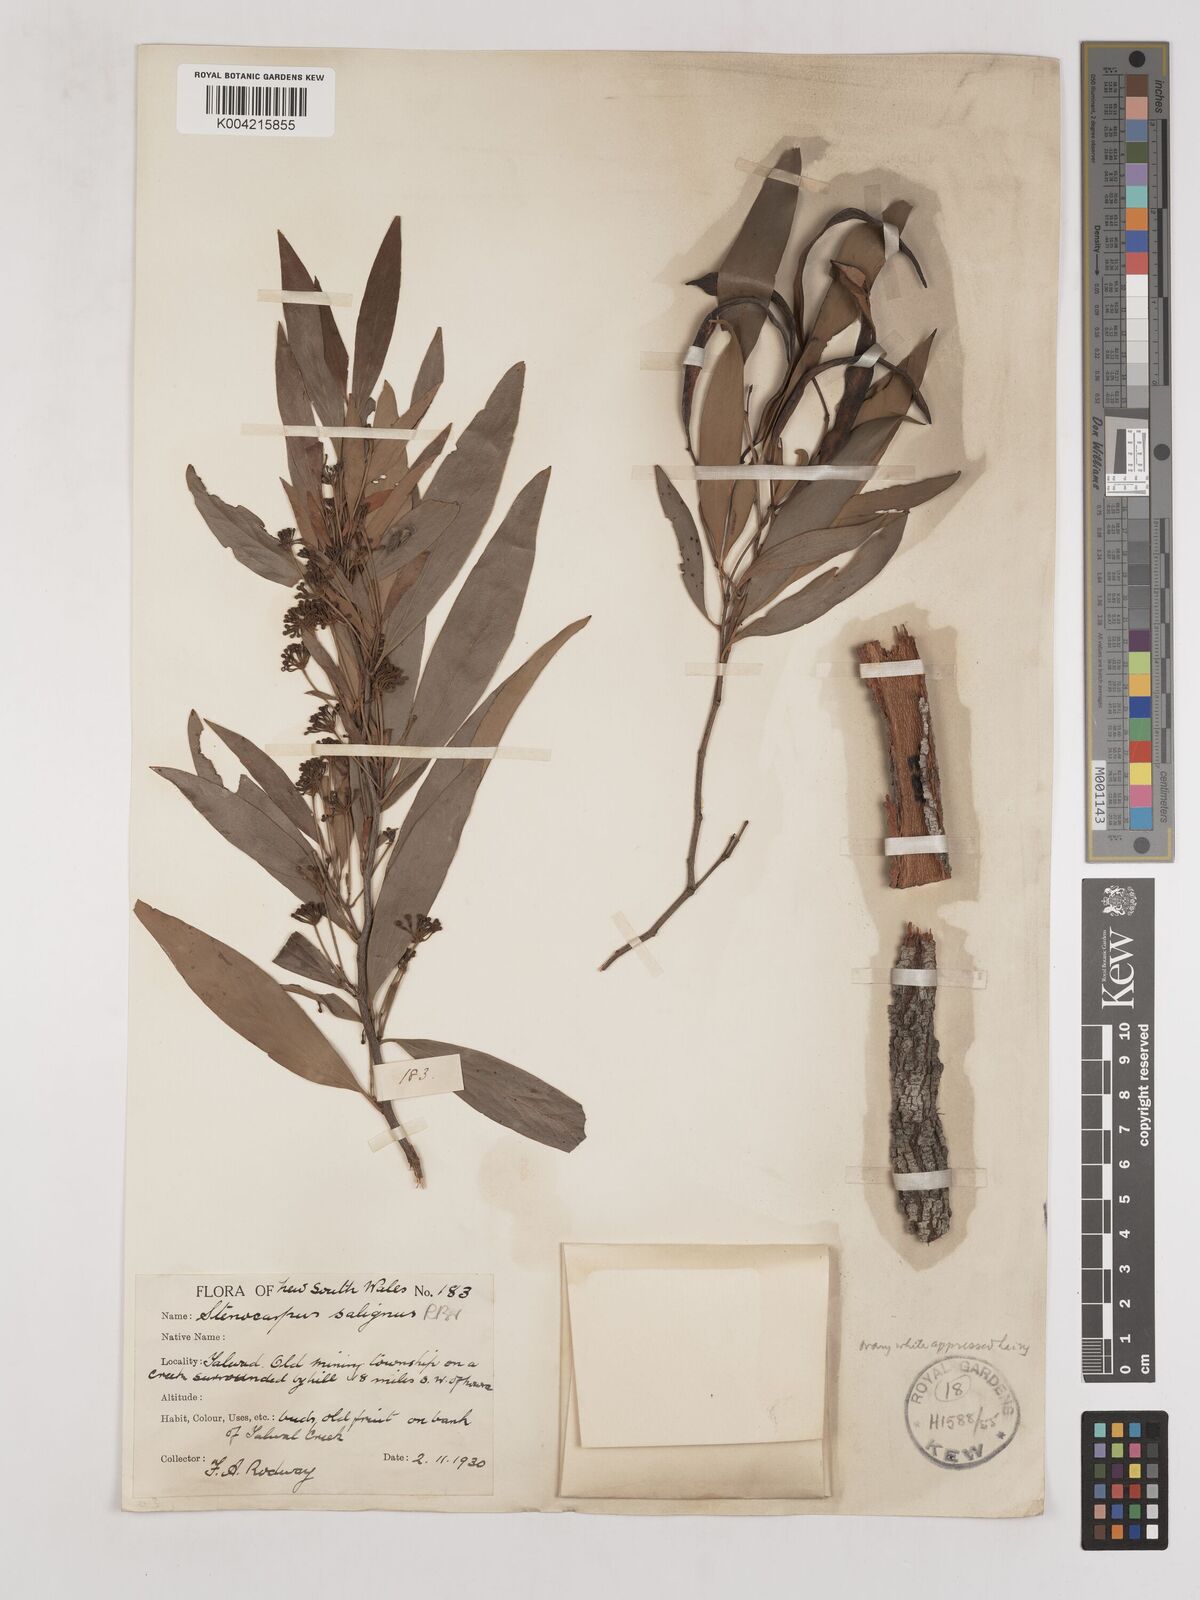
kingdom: Plantae
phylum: Tracheophyta
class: Magnoliopsida
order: Proteales
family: Proteaceae
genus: Stenocarpus
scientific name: Stenocarpus salignus
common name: Red silky-oak
